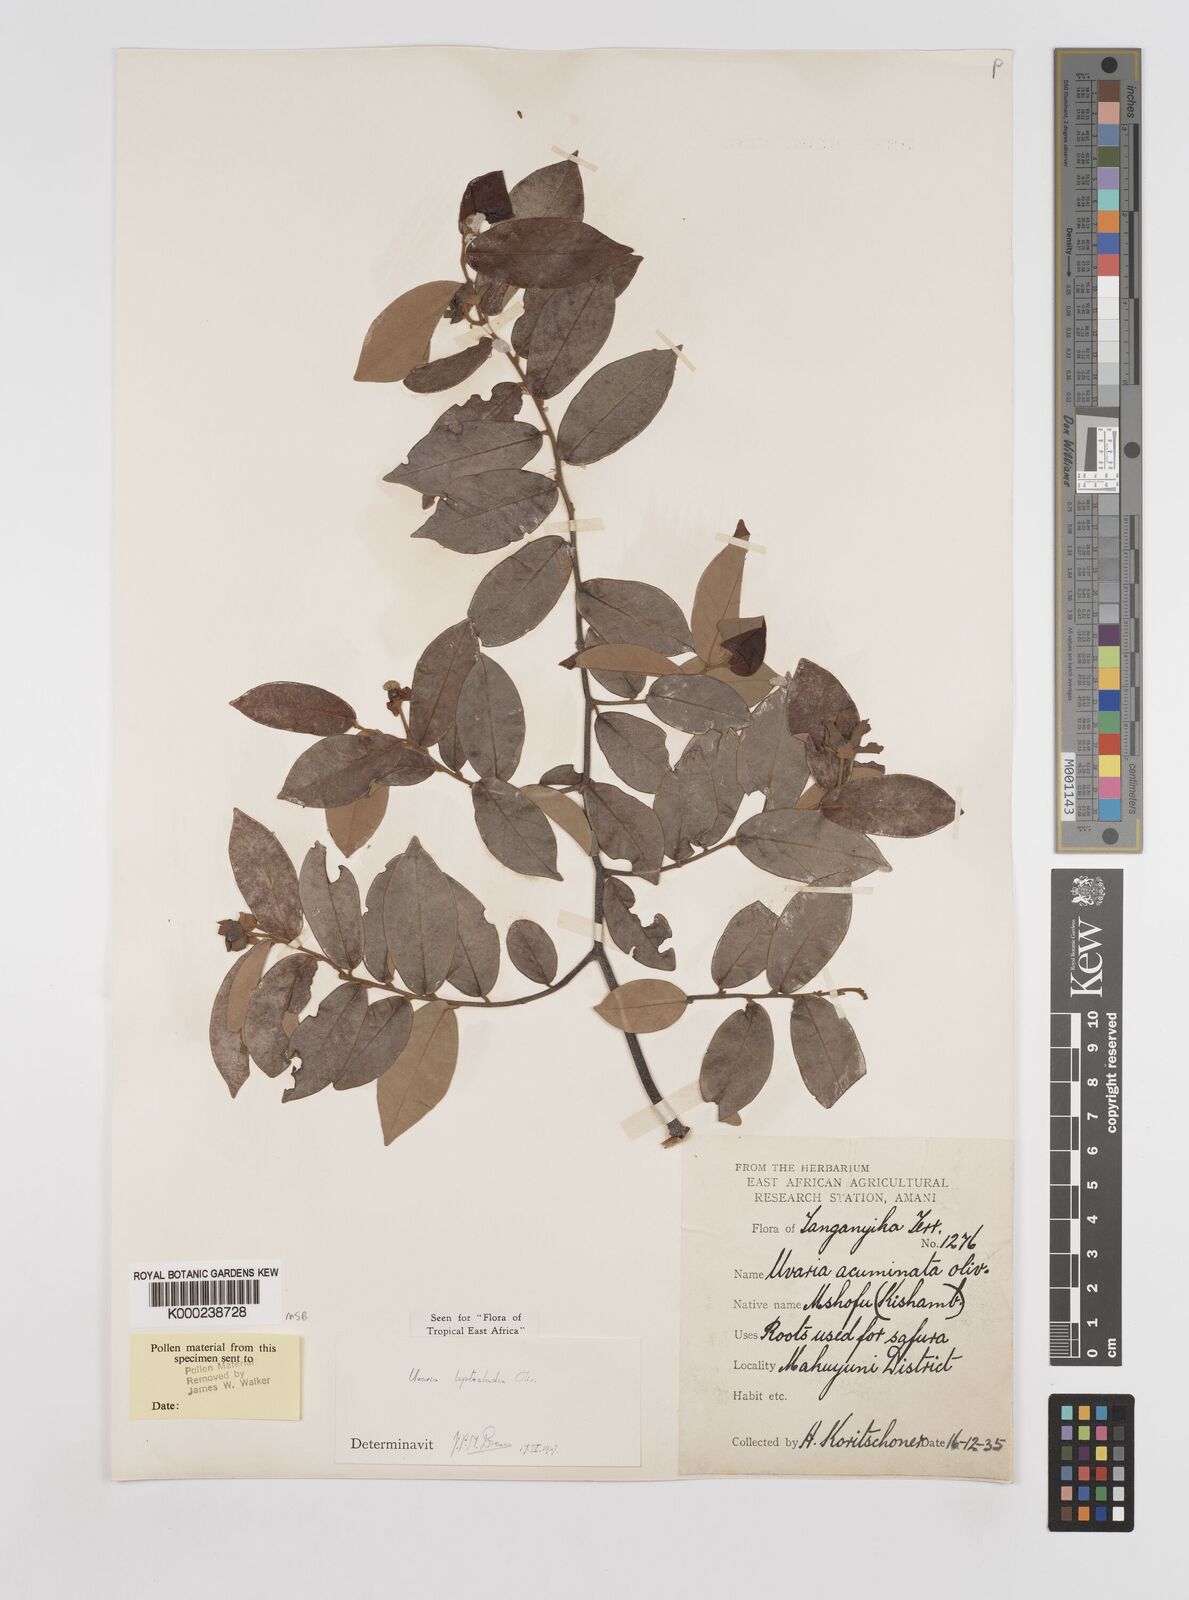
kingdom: Plantae
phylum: Tracheophyta
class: Magnoliopsida
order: Magnoliales
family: Annonaceae
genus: Uvaria
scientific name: Uvaria leptocladon
